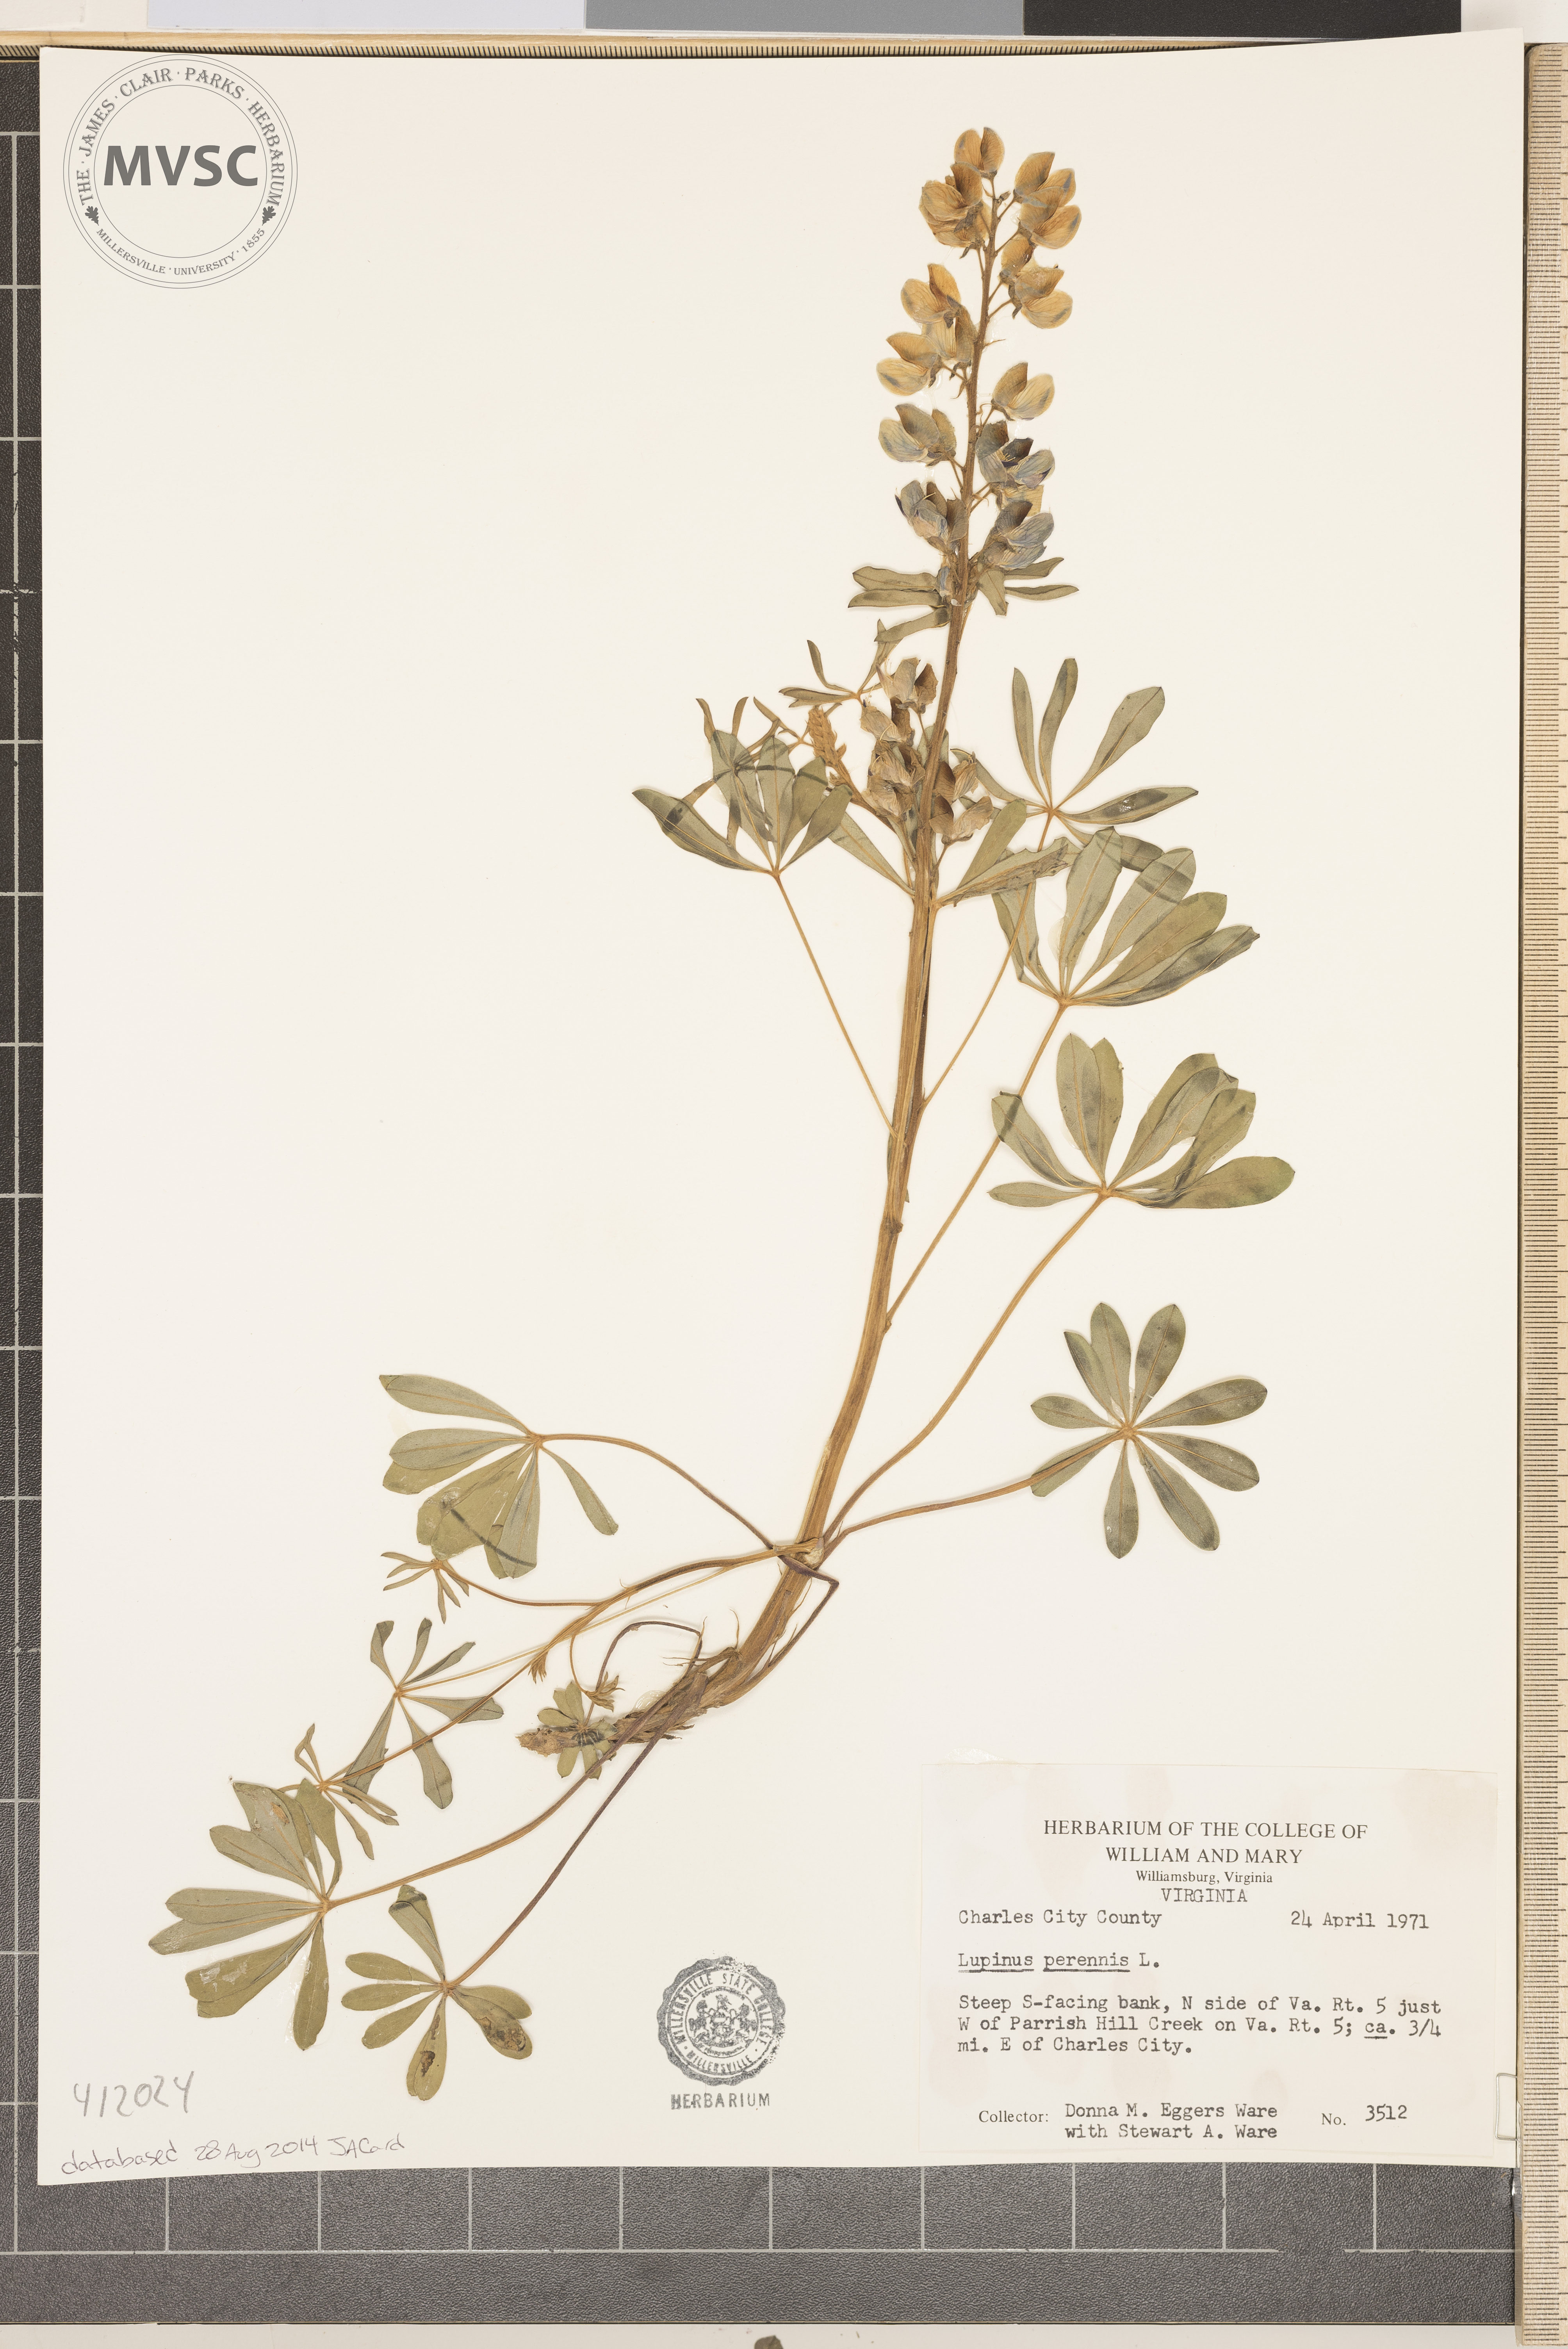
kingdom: Plantae
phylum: Tracheophyta
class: Magnoliopsida
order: Fabales
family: Fabaceae
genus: Lupinus
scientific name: Lupinus perennis
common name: Sundial lupine
